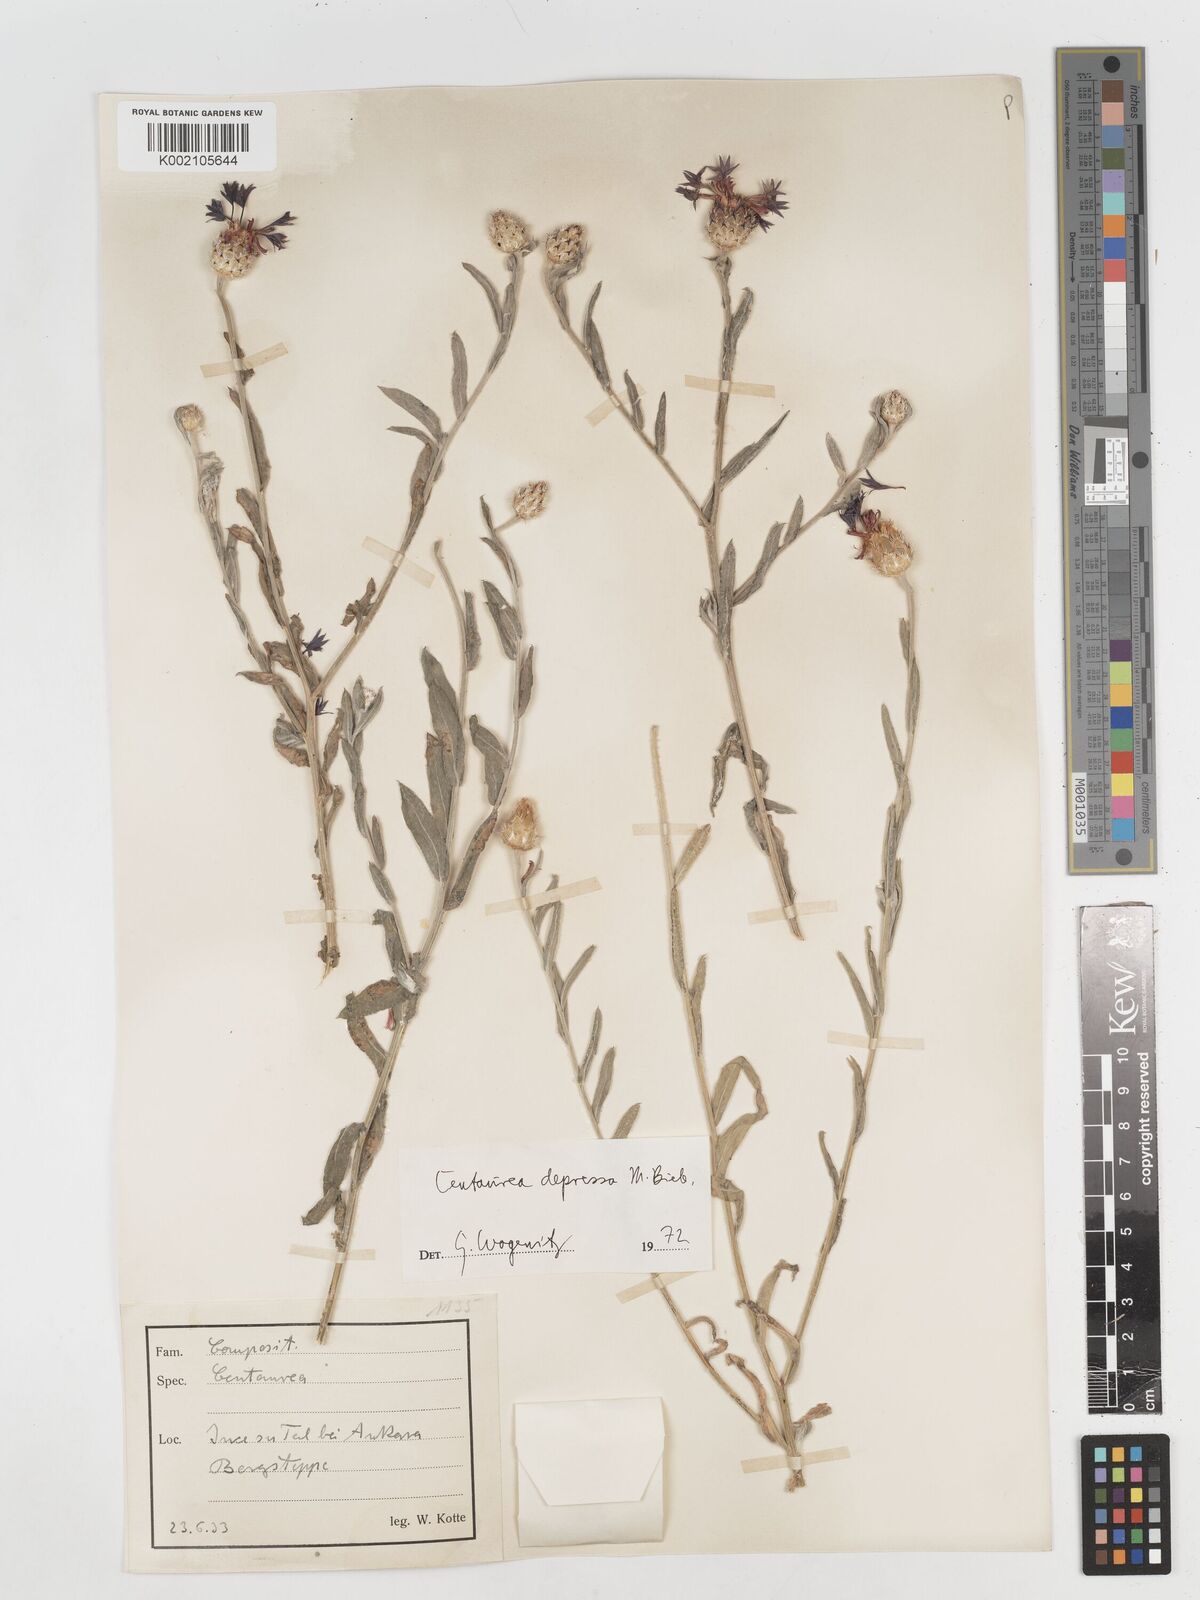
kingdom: Plantae
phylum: Tracheophyta
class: Magnoliopsida
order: Asterales
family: Asteraceae
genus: Centaurea
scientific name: Centaurea depressa
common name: Iranian knapweed
